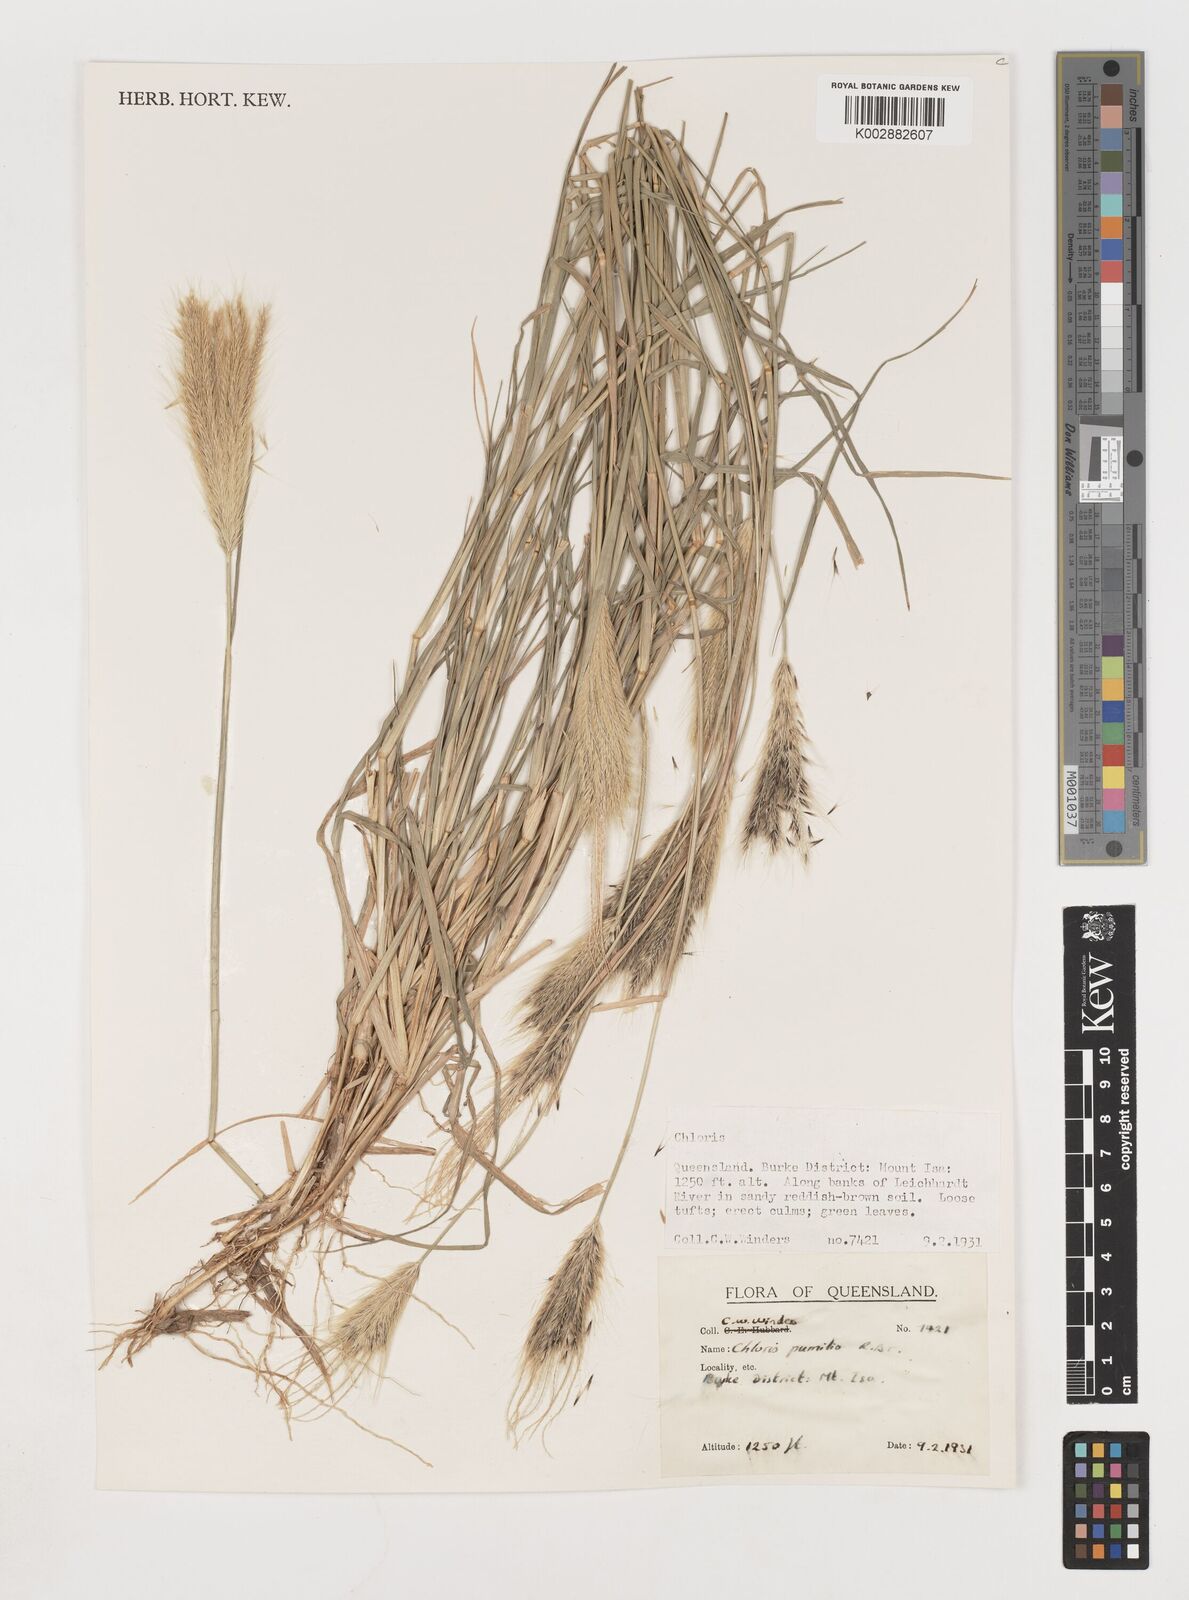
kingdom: Plantae
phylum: Tracheophyta
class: Liliopsida
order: Poales
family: Poaceae
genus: Chloris
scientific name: Chloris pumilio
